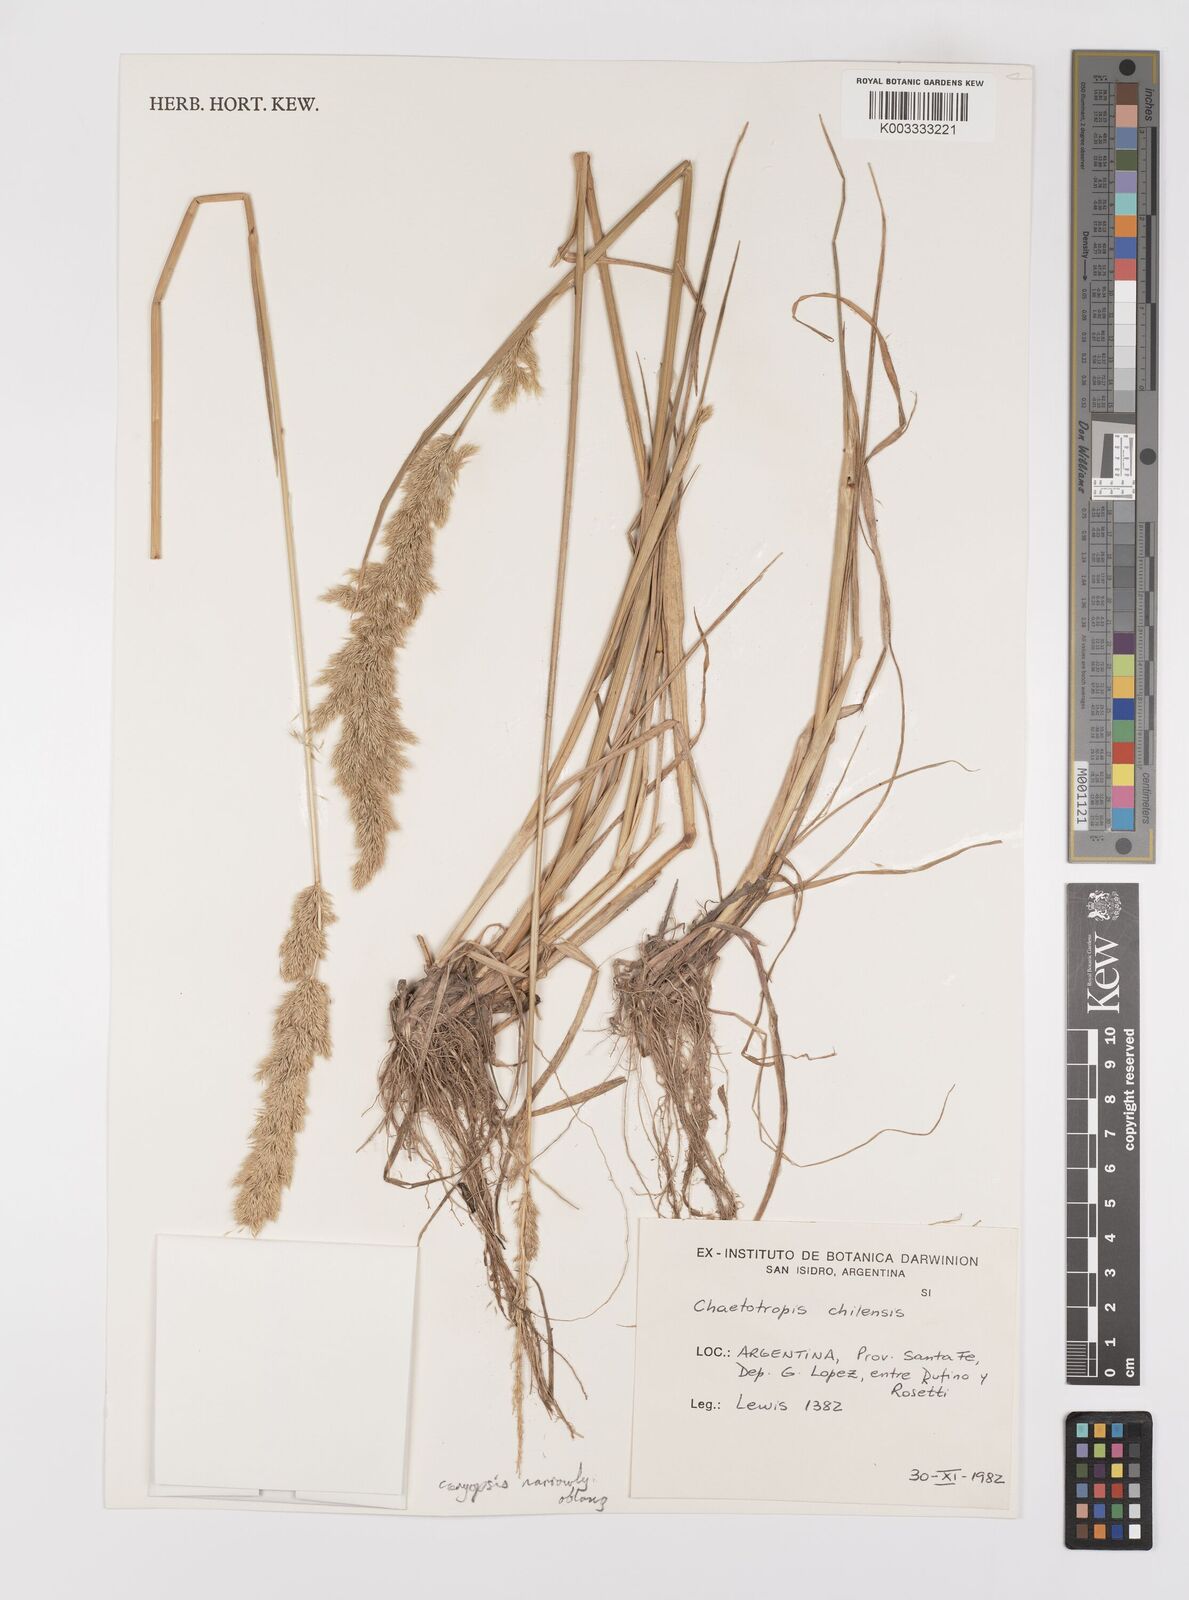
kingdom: Plantae
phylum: Tracheophyta
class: Liliopsida
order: Poales
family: Poaceae
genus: Polypogon
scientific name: Polypogon chilensis
